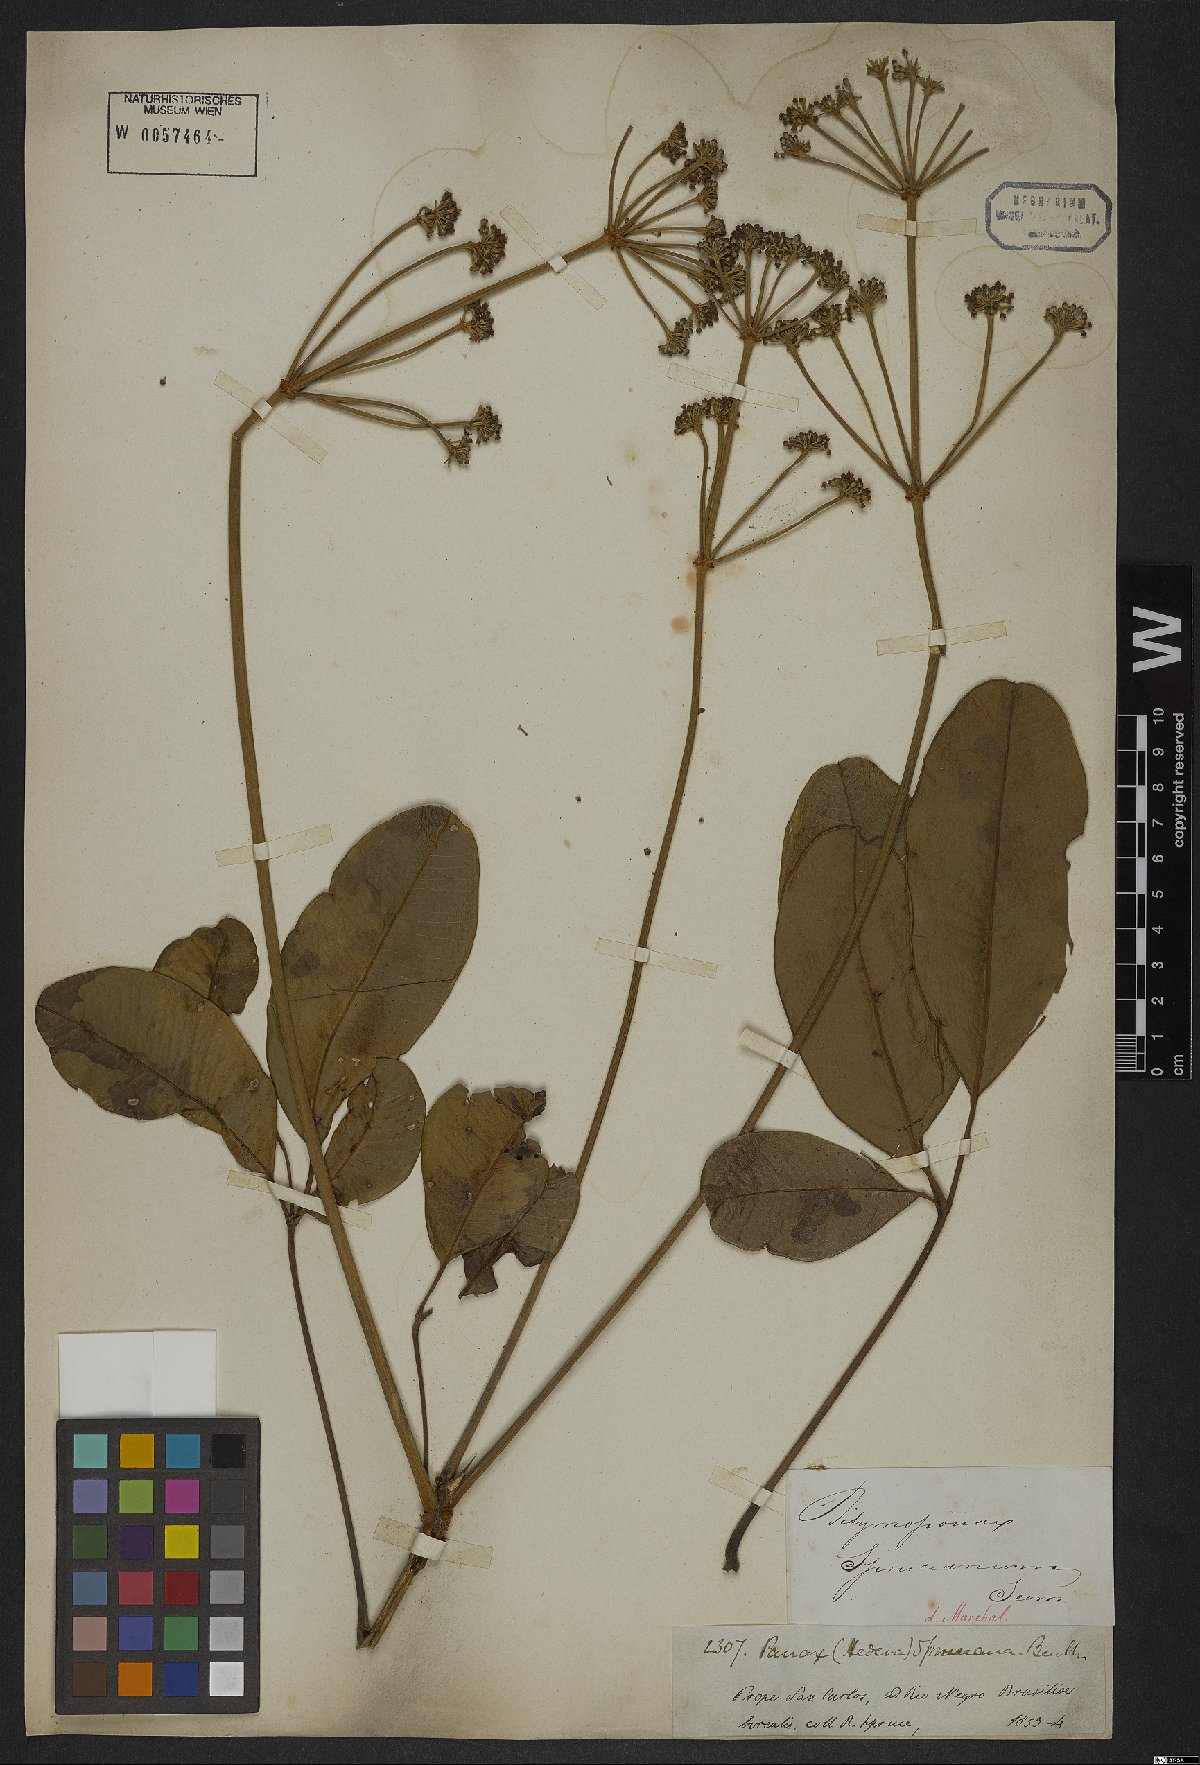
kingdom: Plantae
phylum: Tracheophyta
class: Magnoliopsida
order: Apiales
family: Araliaceae
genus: Crepinella
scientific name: Crepinella spruceana
